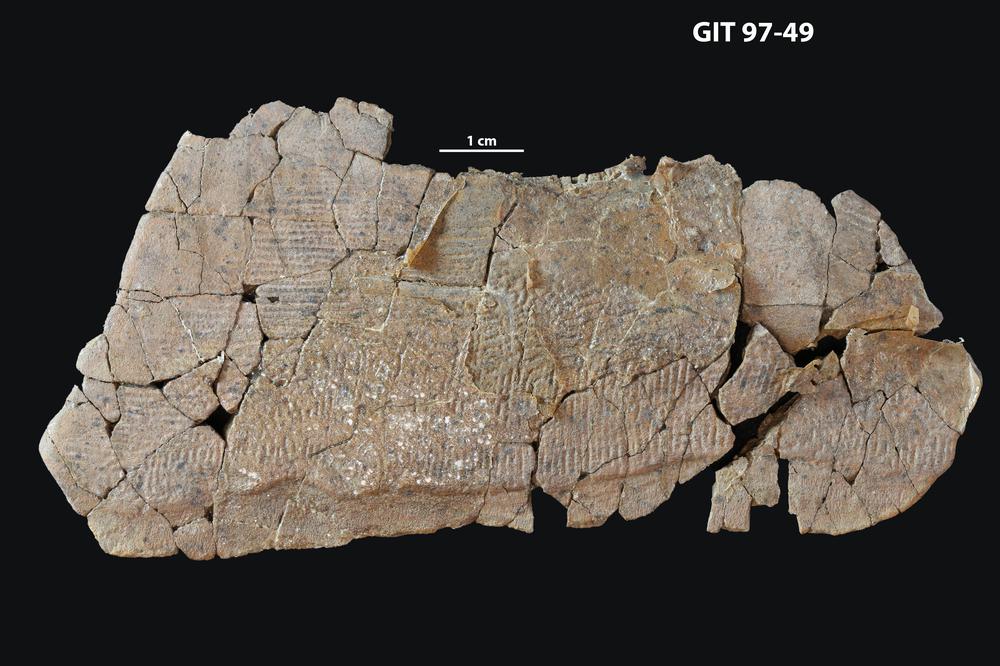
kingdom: Animalia
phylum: Chordata
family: Holonematidae
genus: Holonema
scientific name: Holonema
